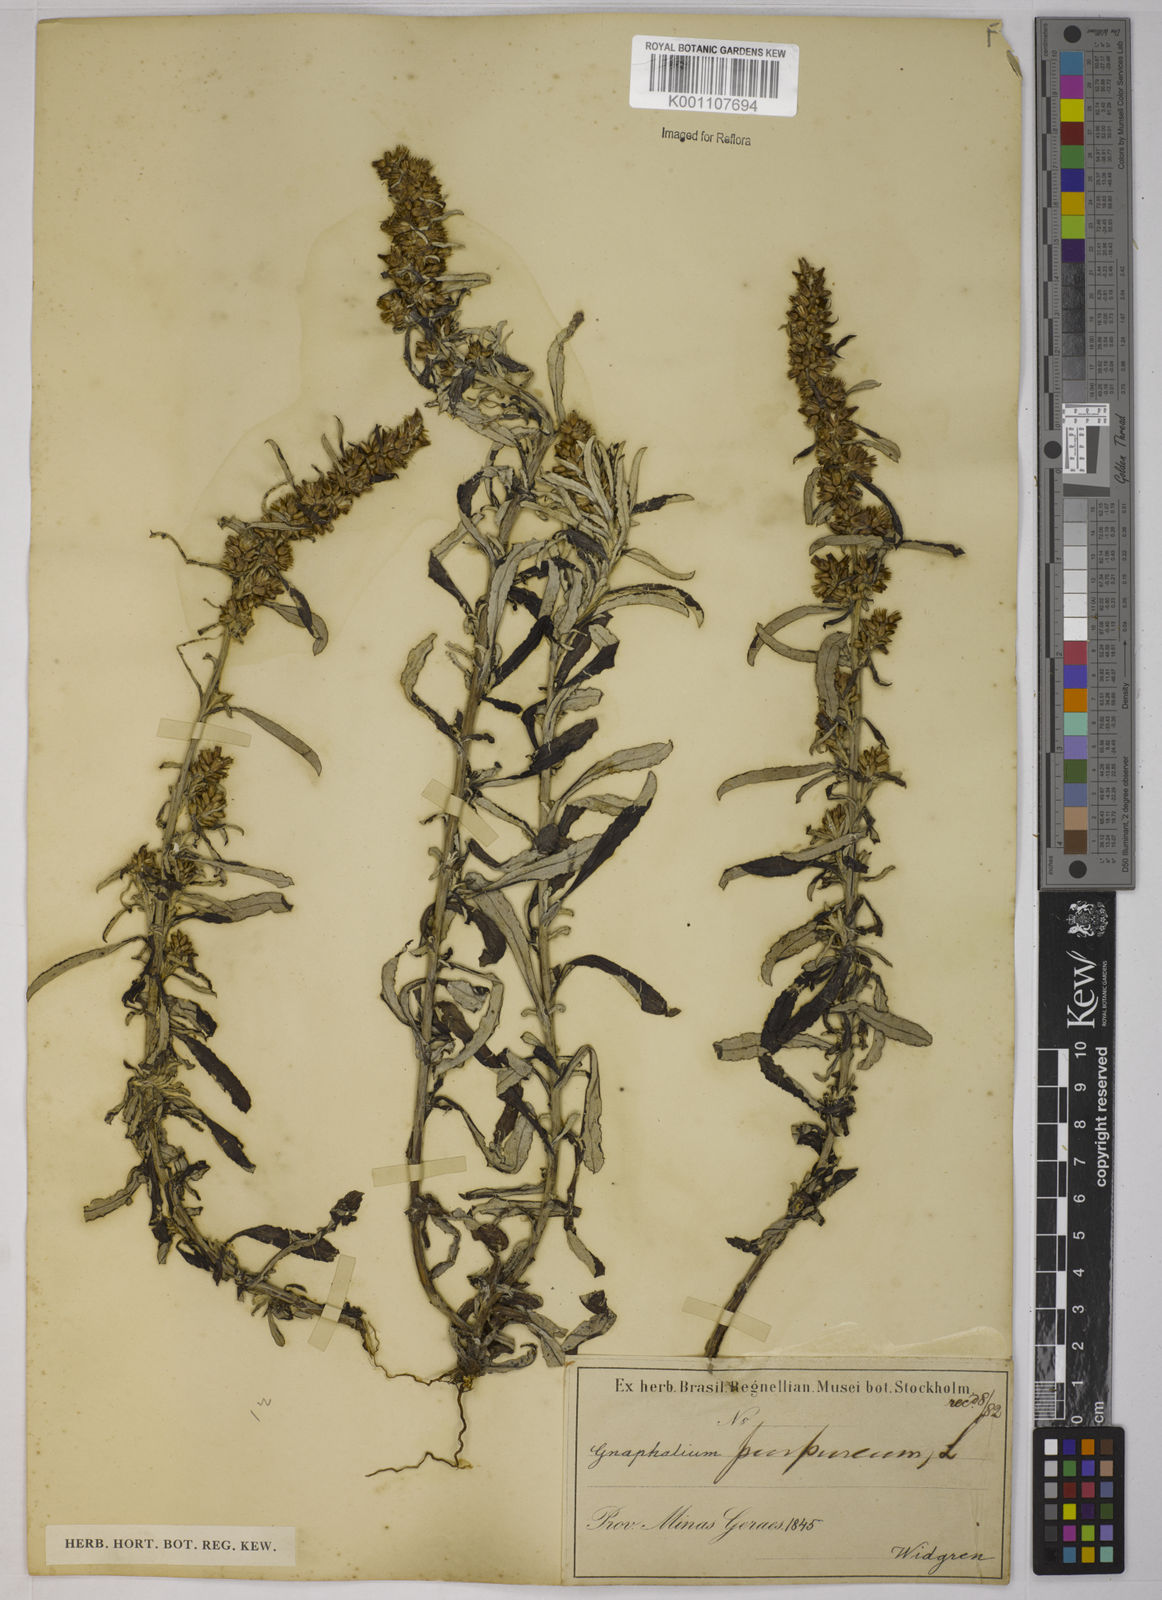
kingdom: Plantae
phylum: Tracheophyta
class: Magnoliopsida
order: Asterales
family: Asteraceae
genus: Gamochaeta
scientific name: Gamochaeta purpurea
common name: Purple cudweed
